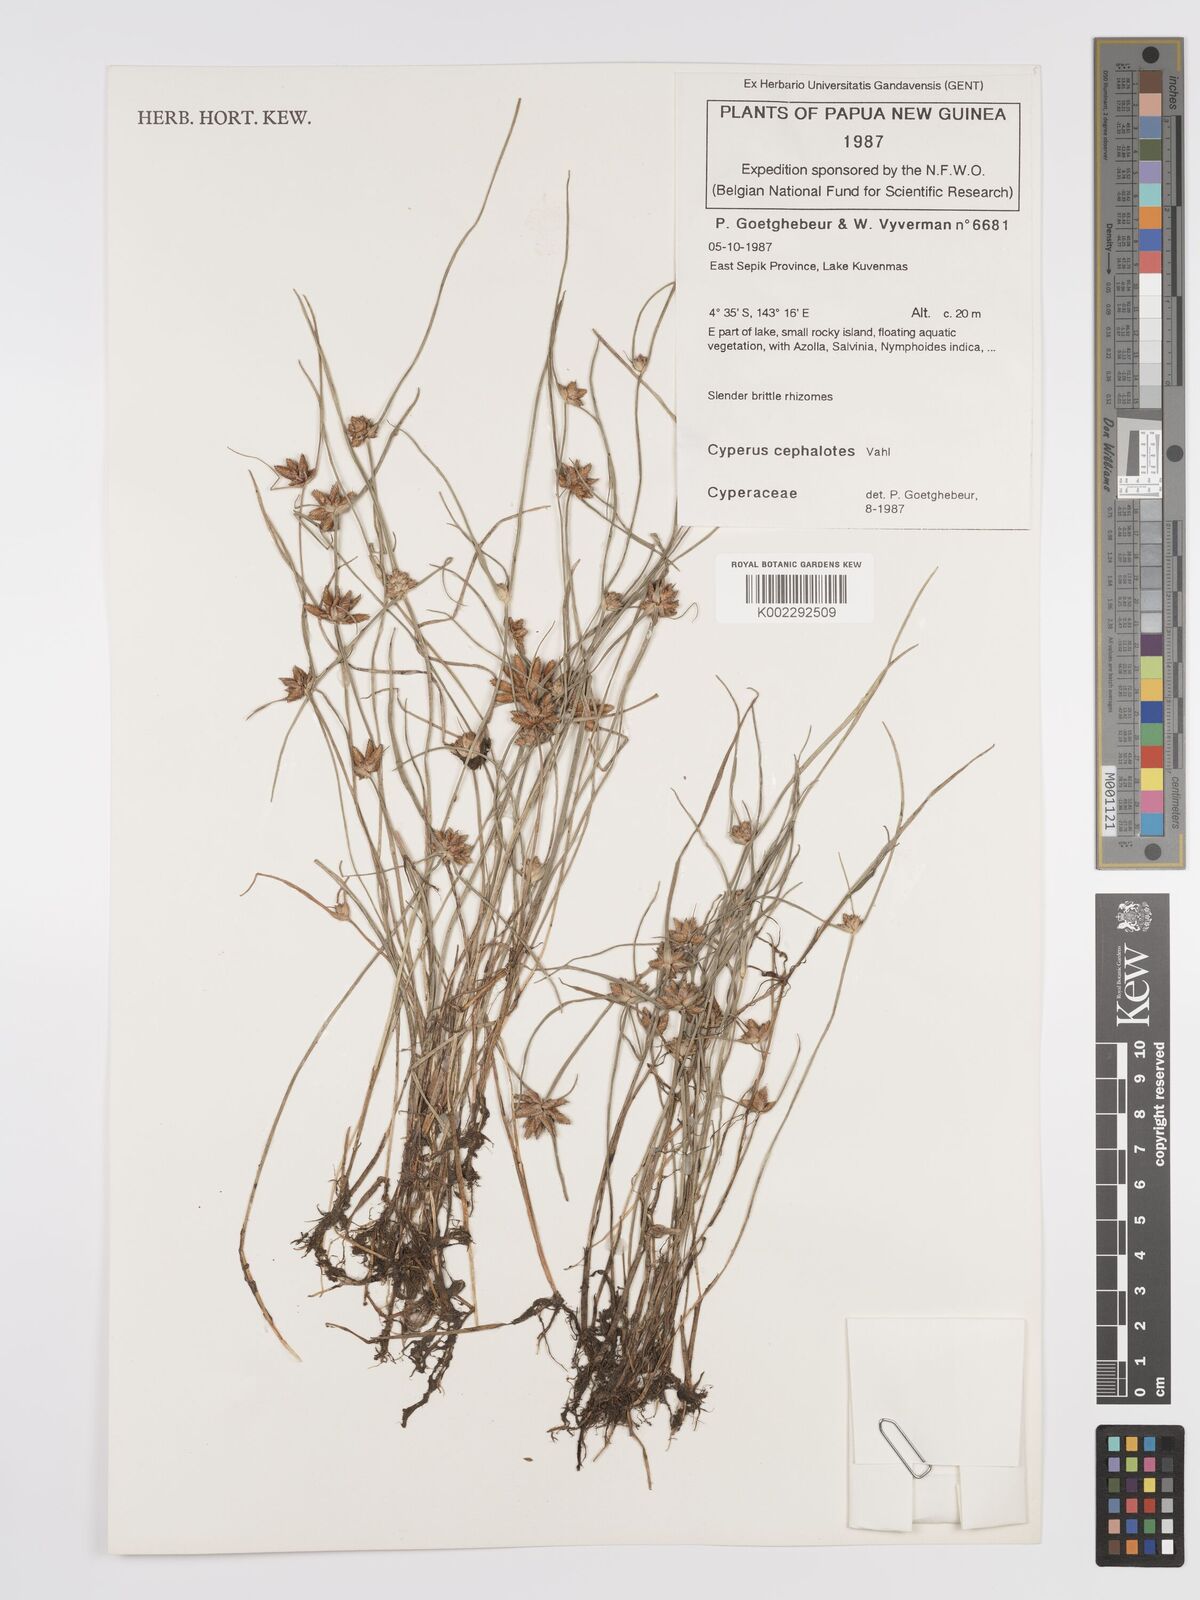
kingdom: Plantae
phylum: Tracheophyta
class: Liliopsida
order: Poales
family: Cyperaceae
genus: Cyperus
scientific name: Cyperus cephalotes
